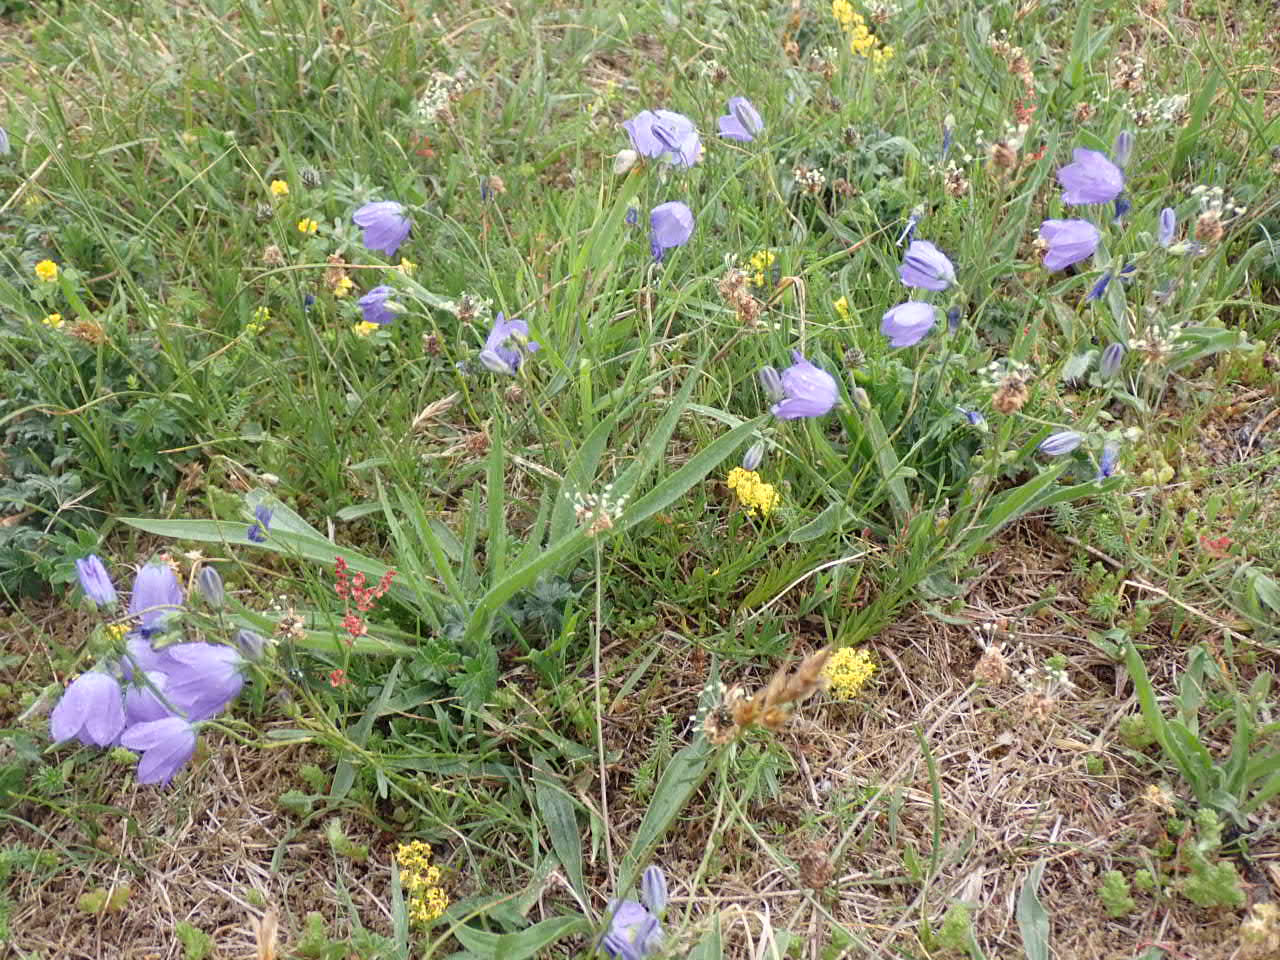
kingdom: Plantae
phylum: Tracheophyta
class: Magnoliopsida
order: Asterales
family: Campanulaceae
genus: Campanula
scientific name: Campanula rotundifolia
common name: Liden klokke
